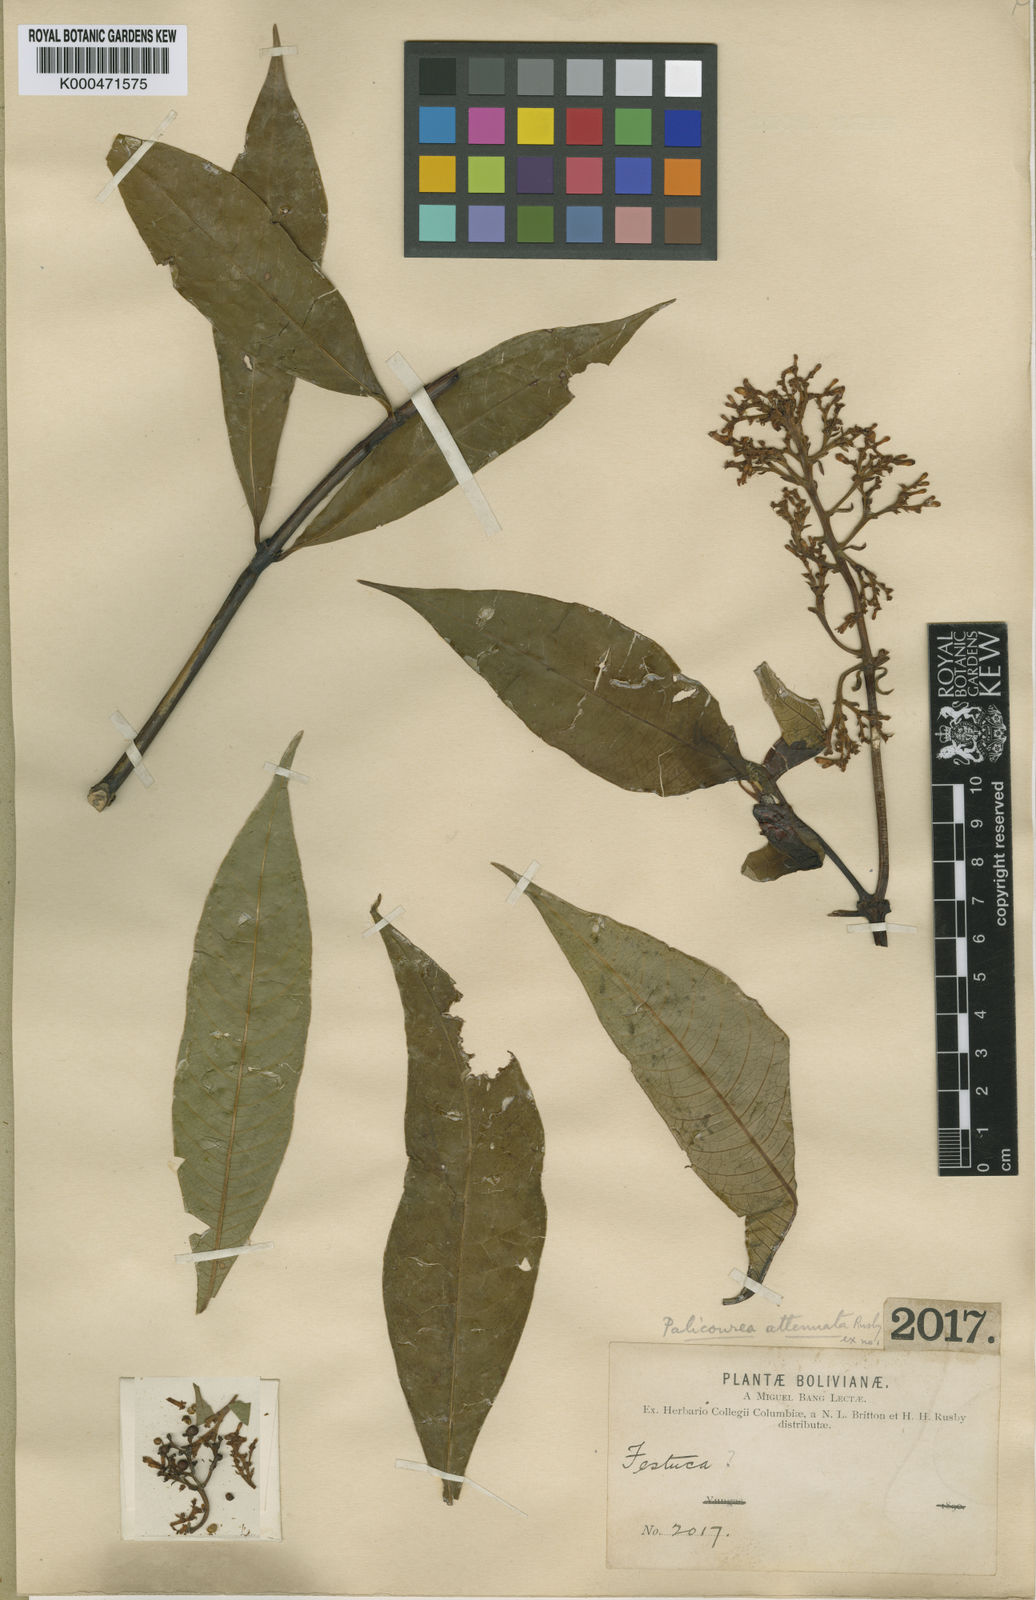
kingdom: Plantae
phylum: Tracheophyta
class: Magnoliopsida
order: Gentianales
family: Rubiaceae
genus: Palicourea
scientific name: Palicourea attenuata
